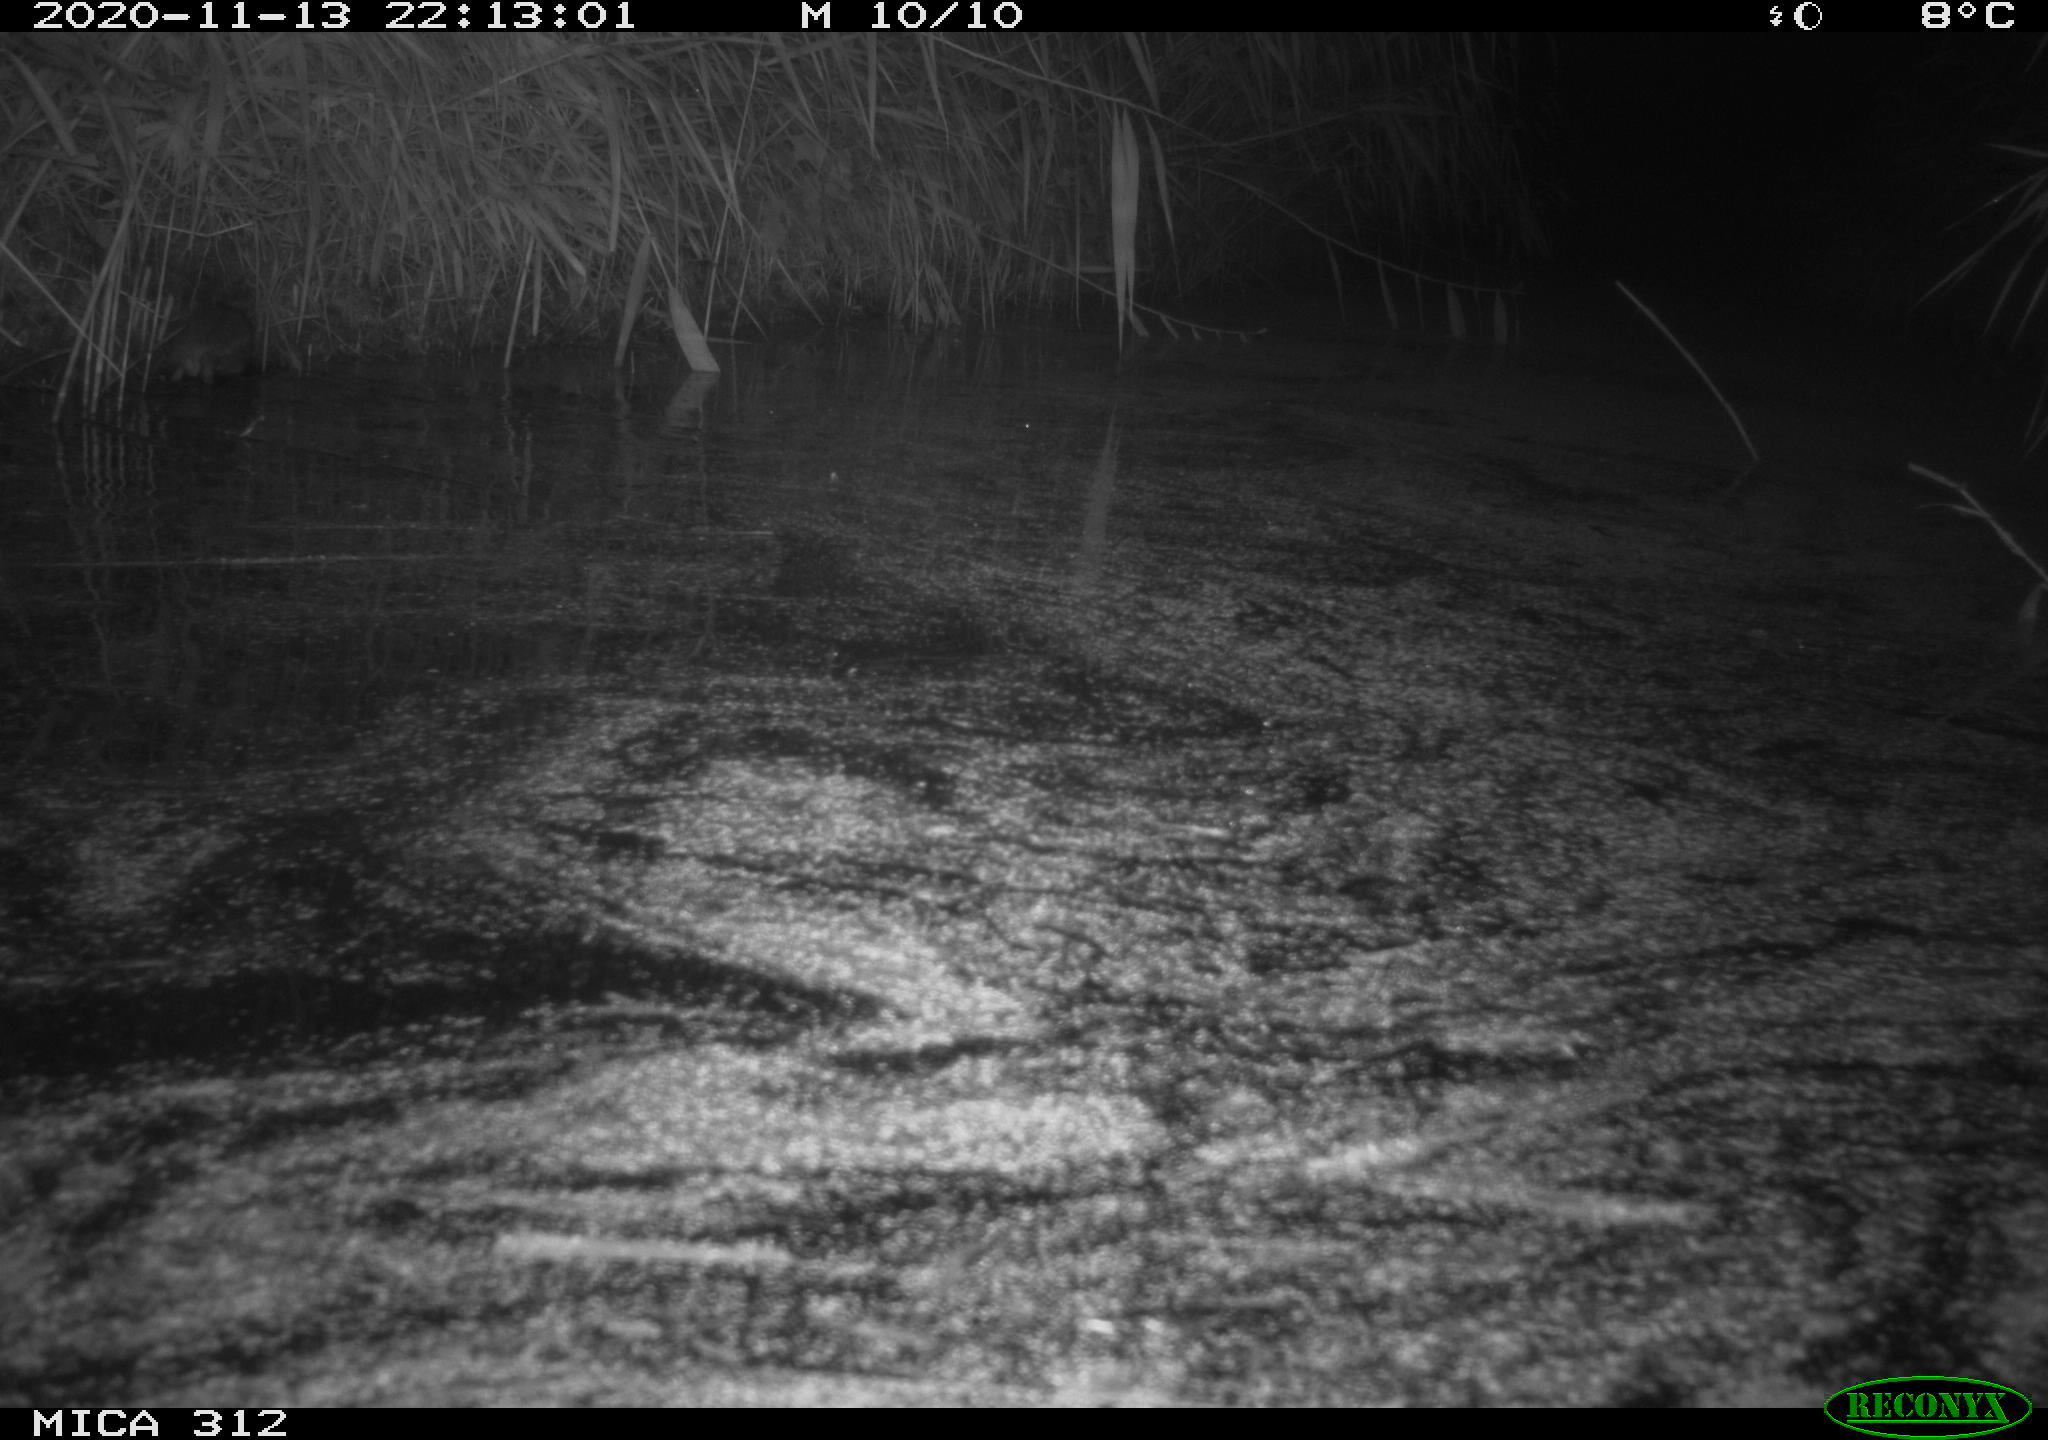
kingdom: Animalia
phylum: Chordata
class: Mammalia
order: Rodentia
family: Muridae
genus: Rattus
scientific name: Rattus norvegicus
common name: Brown rat
